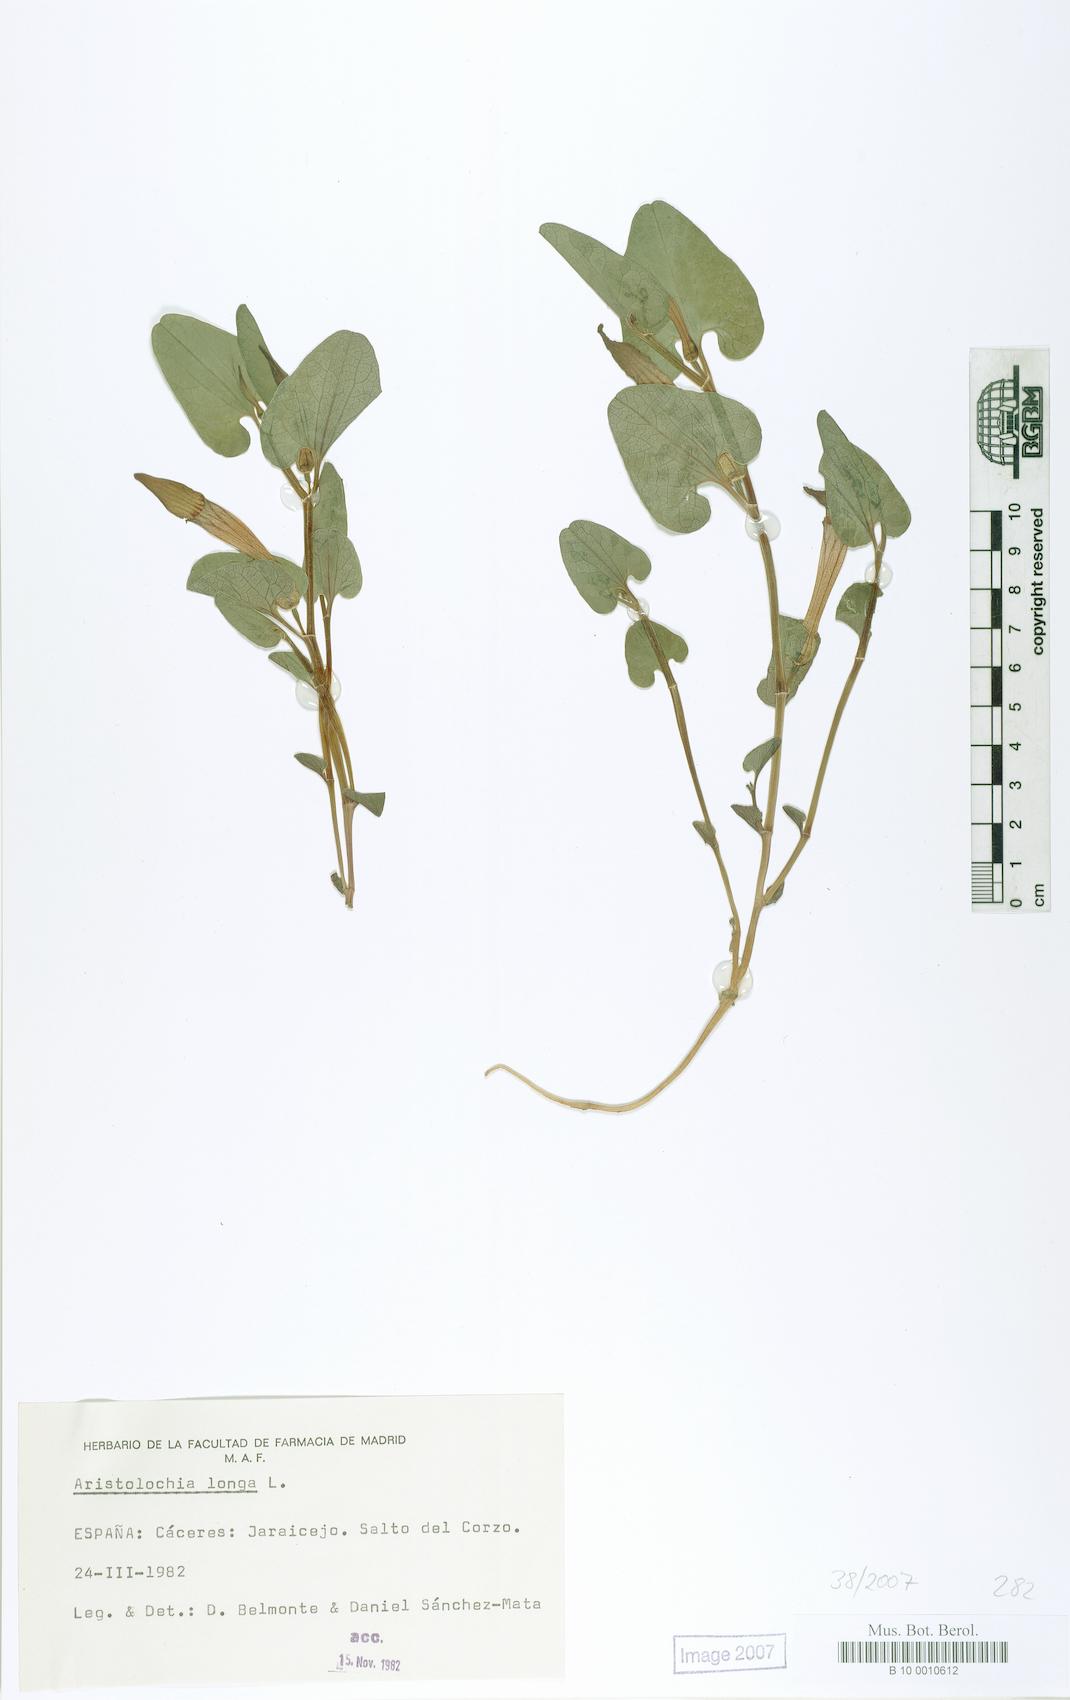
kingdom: Plantae
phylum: Tracheophyta
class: Magnoliopsida
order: Piperales
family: Aristolochiaceae
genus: Aristolochia
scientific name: Aristolochia fontanesii
